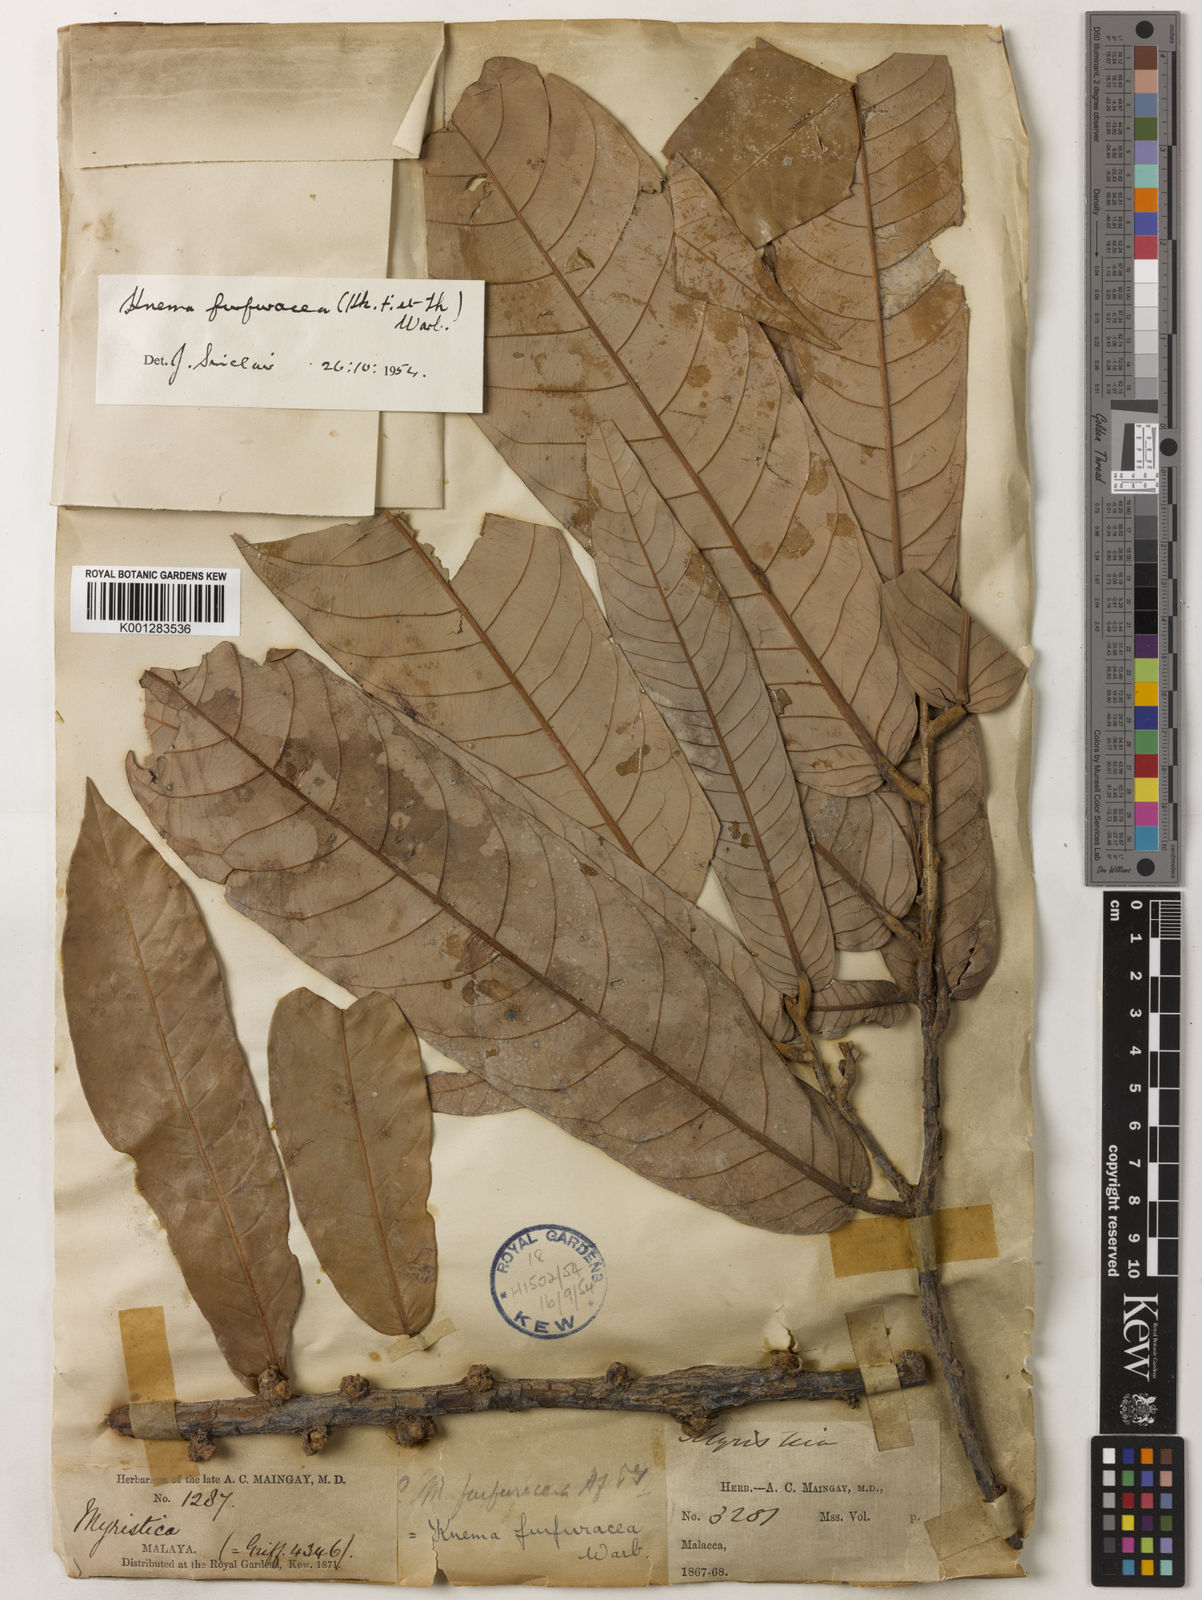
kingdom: Plantae
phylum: Tracheophyta
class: Magnoliopsida
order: Magnoliales
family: Myristicaceae
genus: Knema
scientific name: Knema furfuracea
